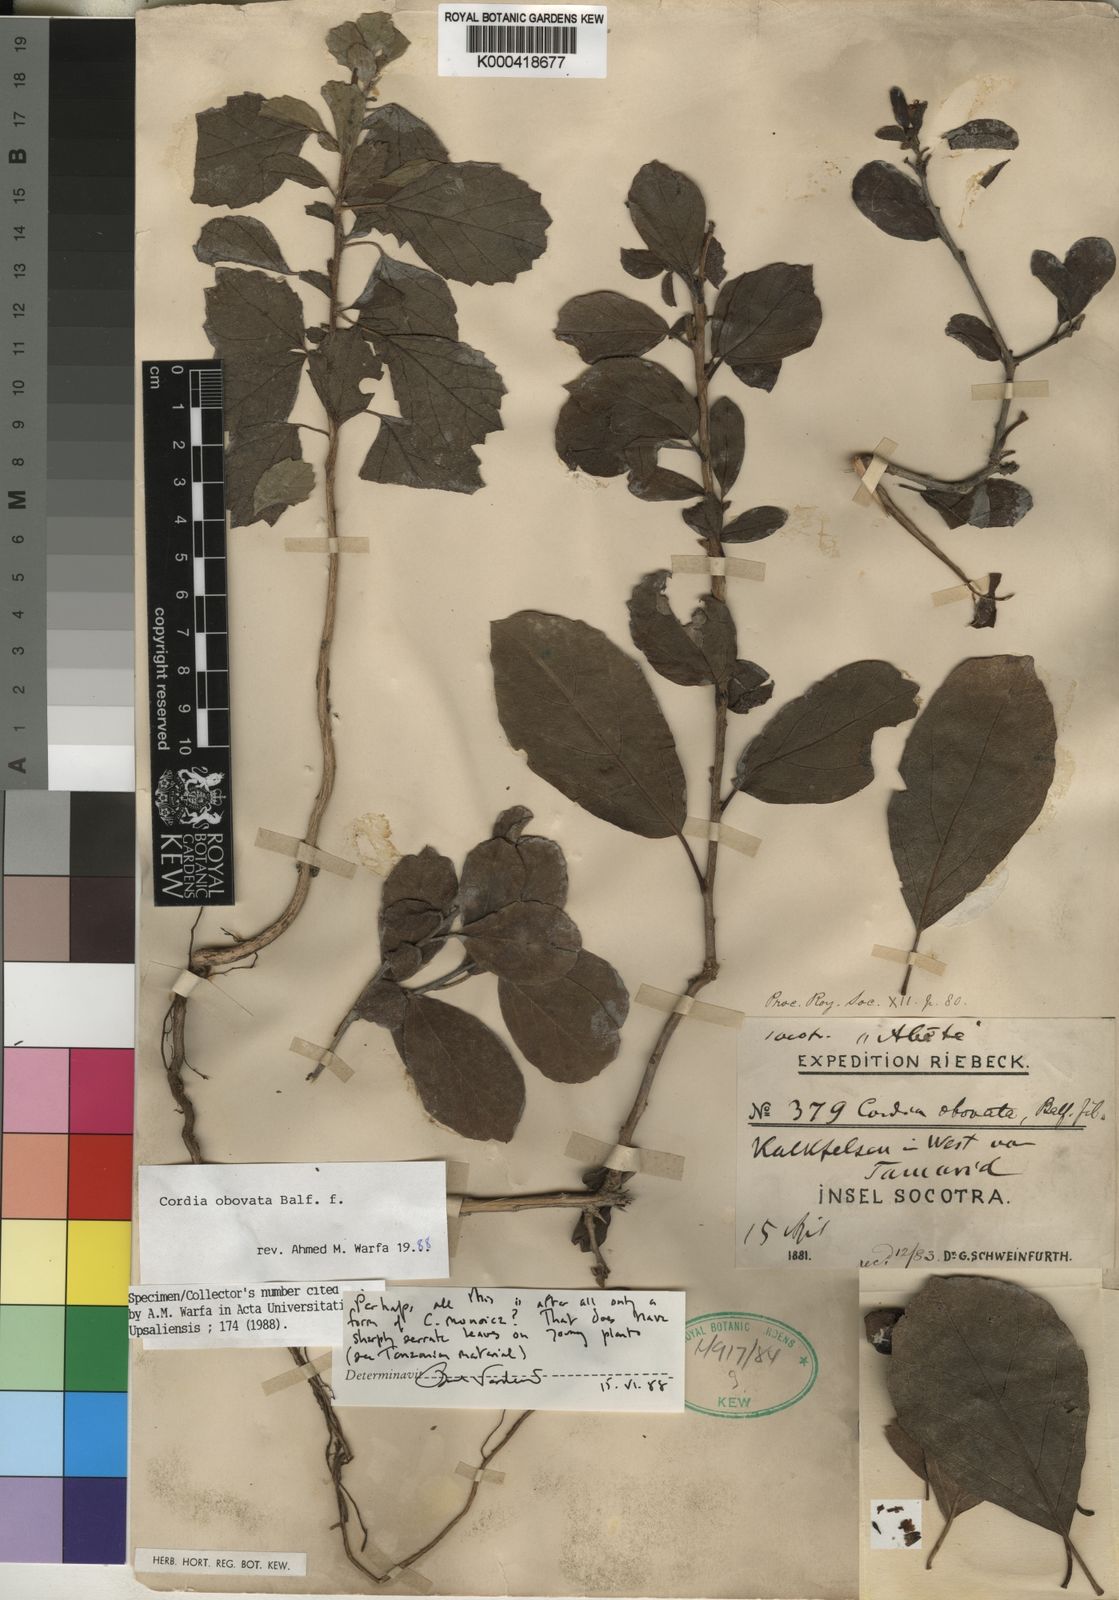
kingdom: Plantae
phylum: Tracheophyta
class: Magnoliopsida
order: Boraginales
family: Cordiaceae
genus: Cordia
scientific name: Cordia obovata
